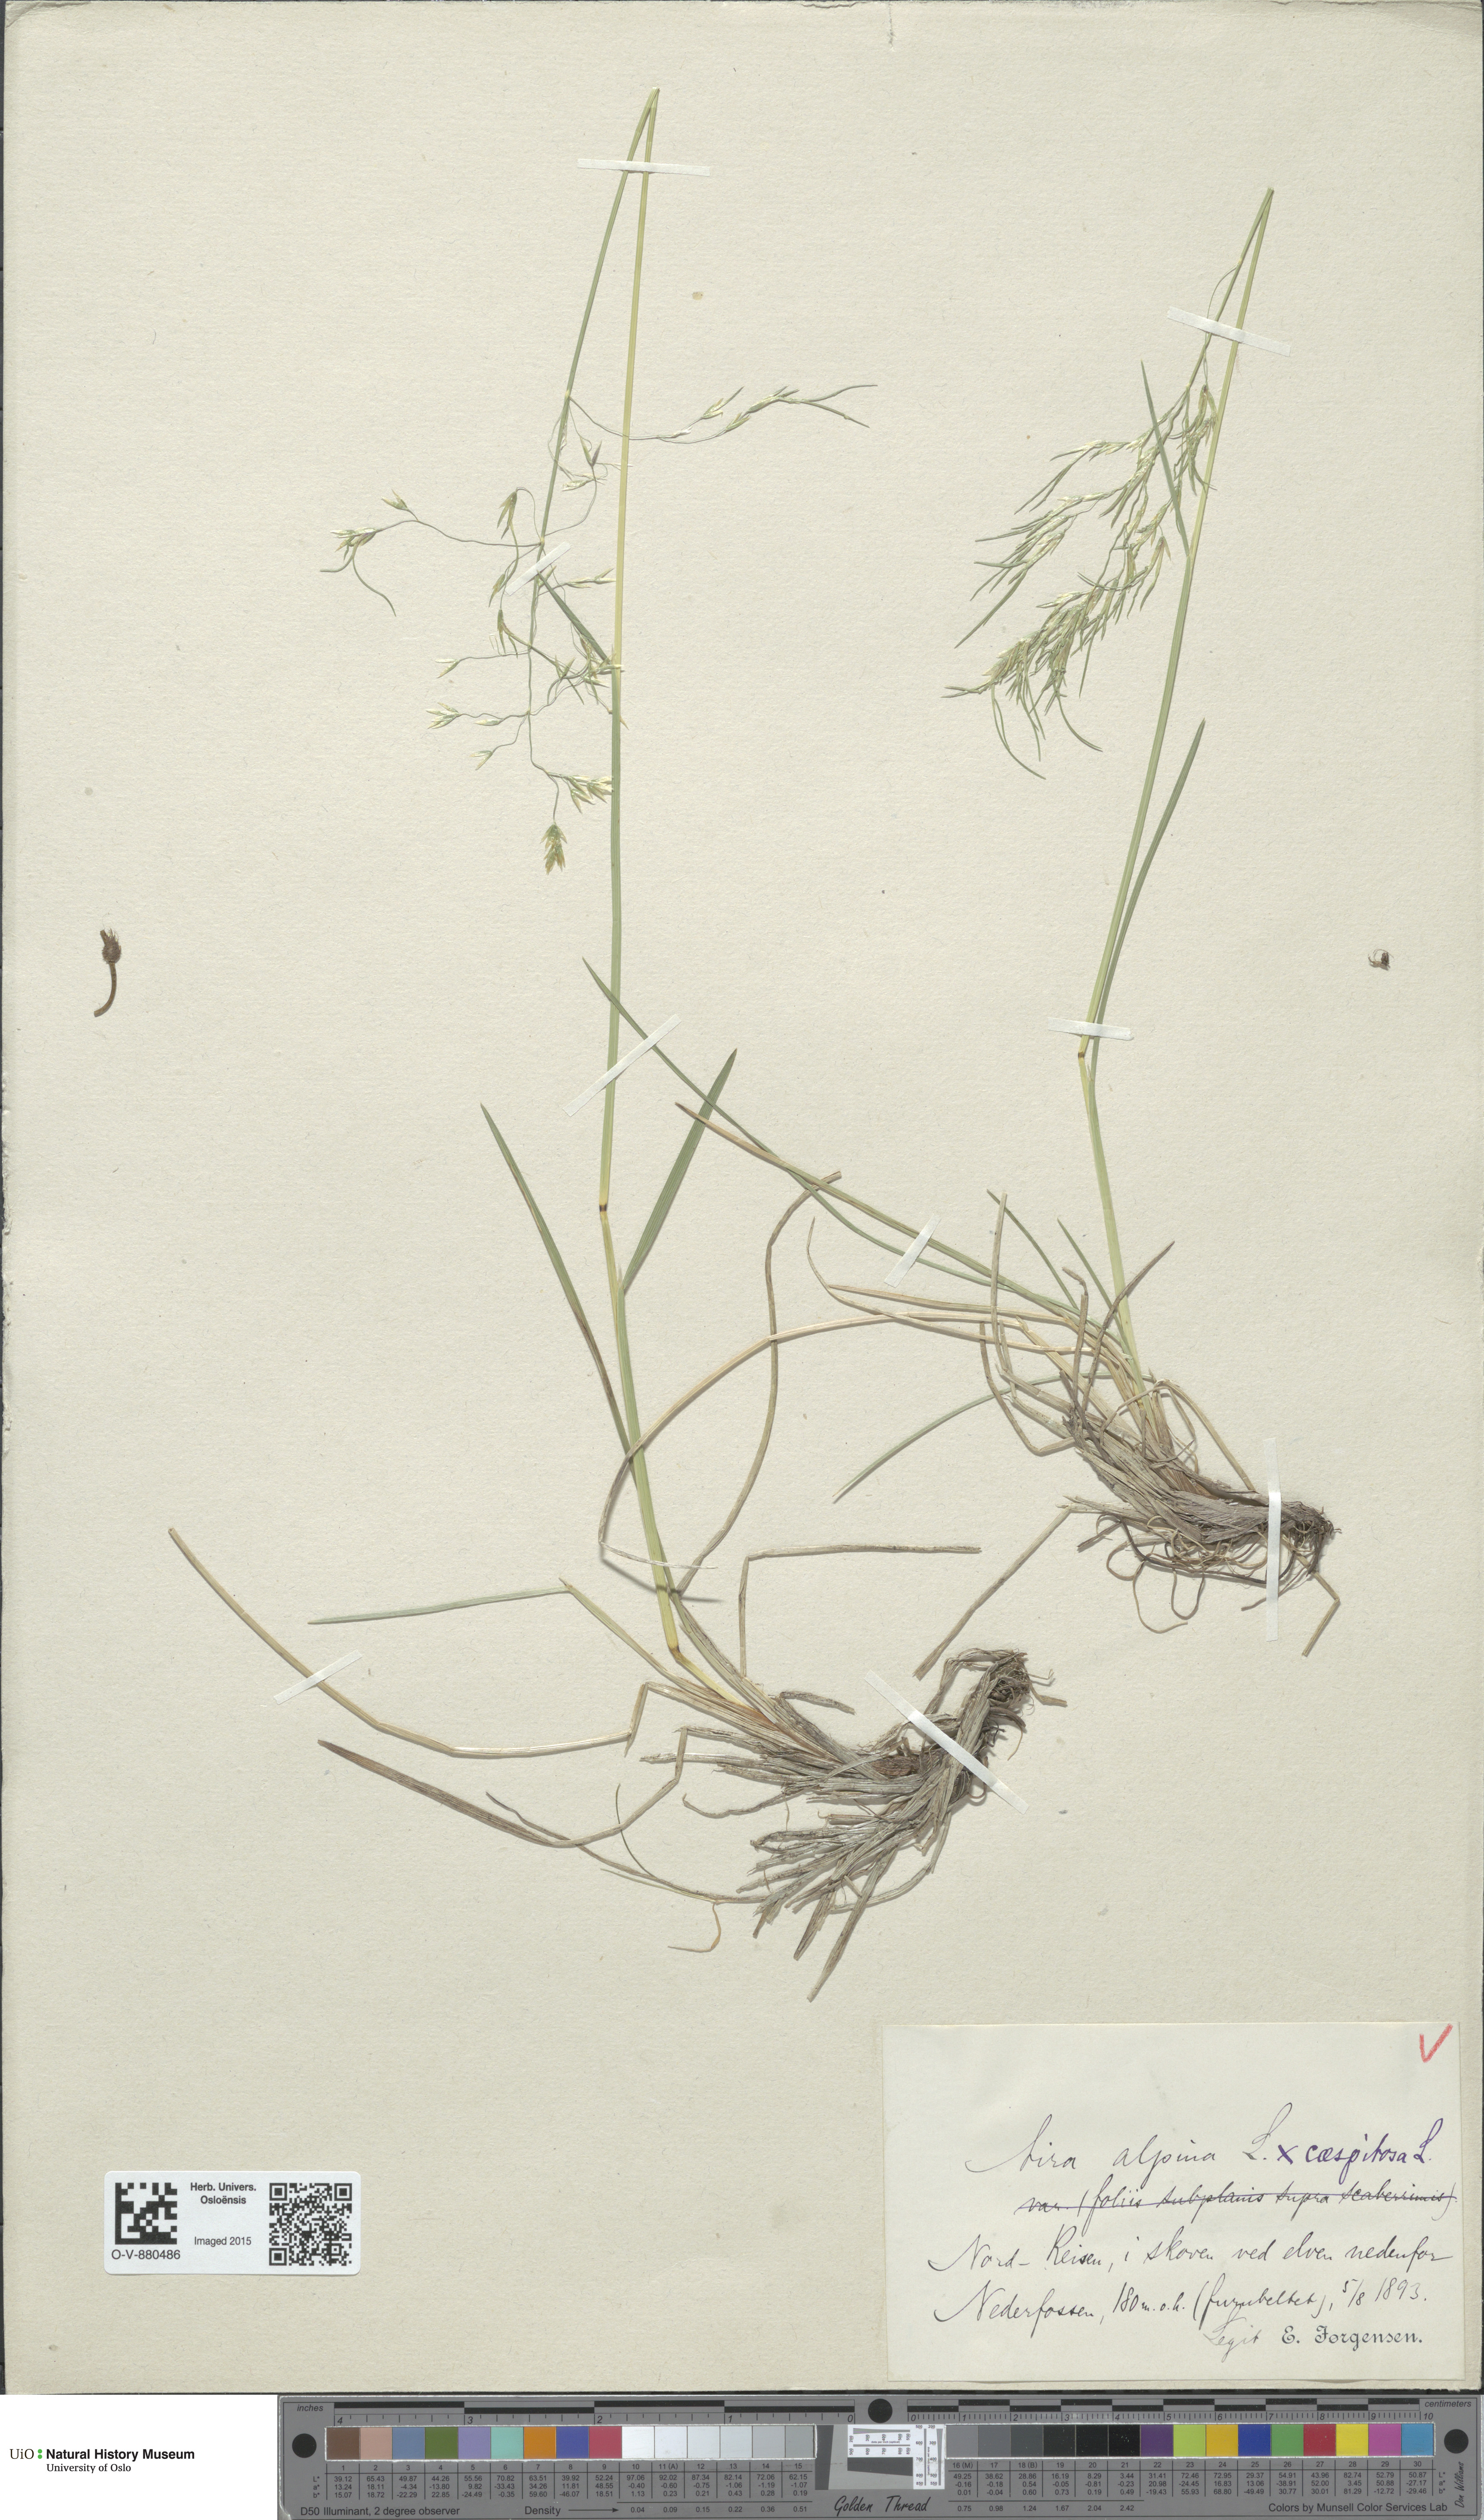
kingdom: Plantae
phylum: Tracheophyta
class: Liliopsida
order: Poales
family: Poaceae
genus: Deschampsia
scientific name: Deschampsia cespitosa
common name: Tufted hair-grass
